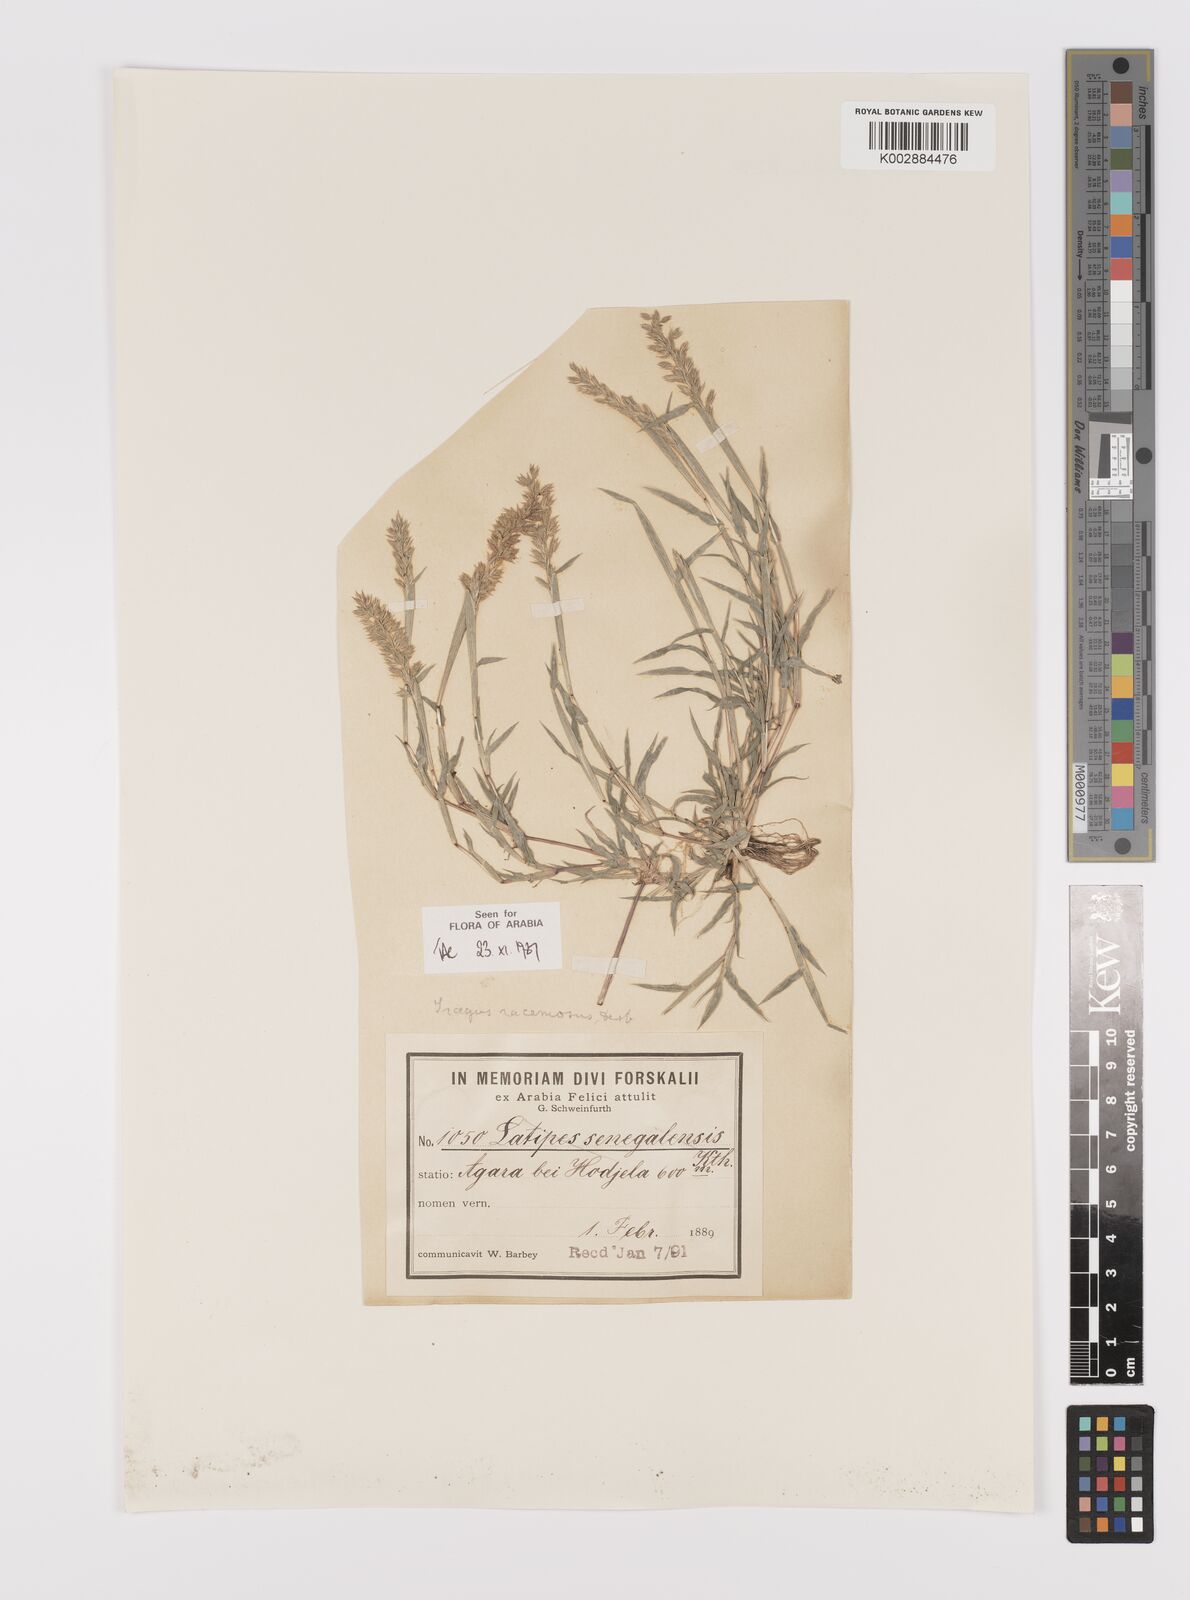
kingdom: Plantae
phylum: Tracheophyta
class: Liliopsida
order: Poales
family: Poaceae
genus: Tragus
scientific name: Tragus racemosus
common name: European bur-grass
